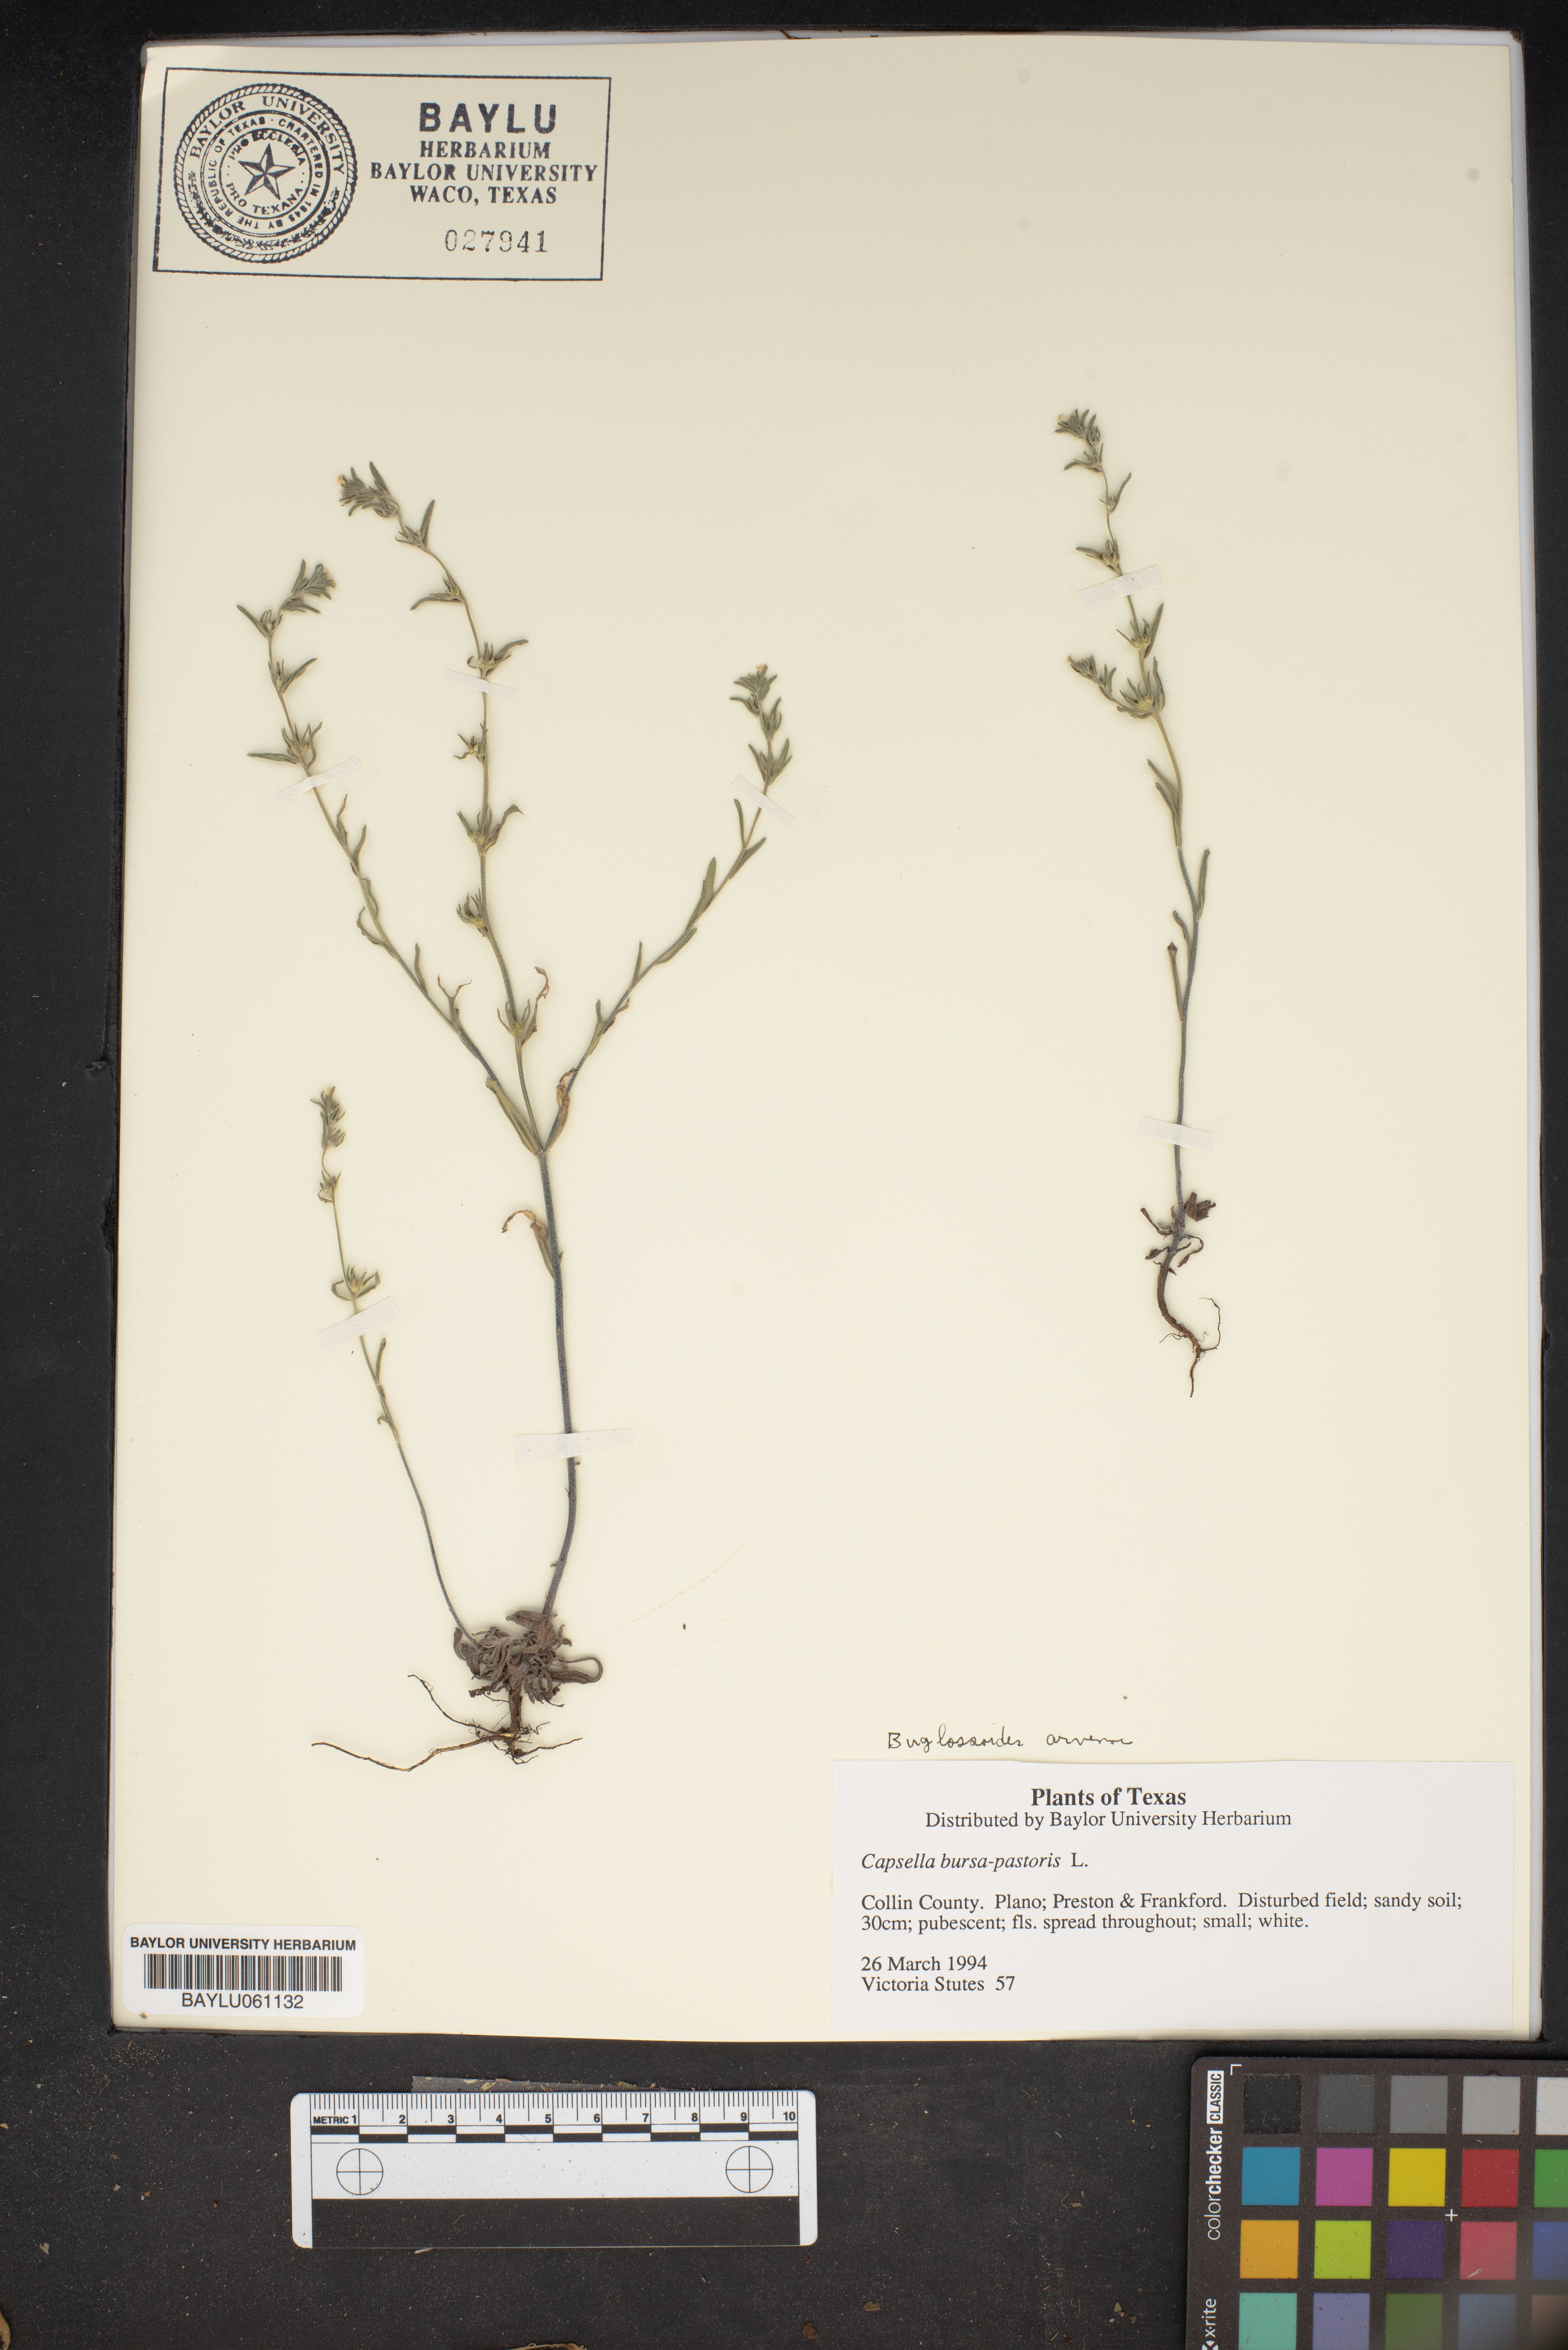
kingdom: Plantae
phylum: Tracheophyta
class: Magnoliopsida
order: Brassicales
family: Brassicaceae
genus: Capsella
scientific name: Capsella bursa-pastoris
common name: Shepherd's purse
